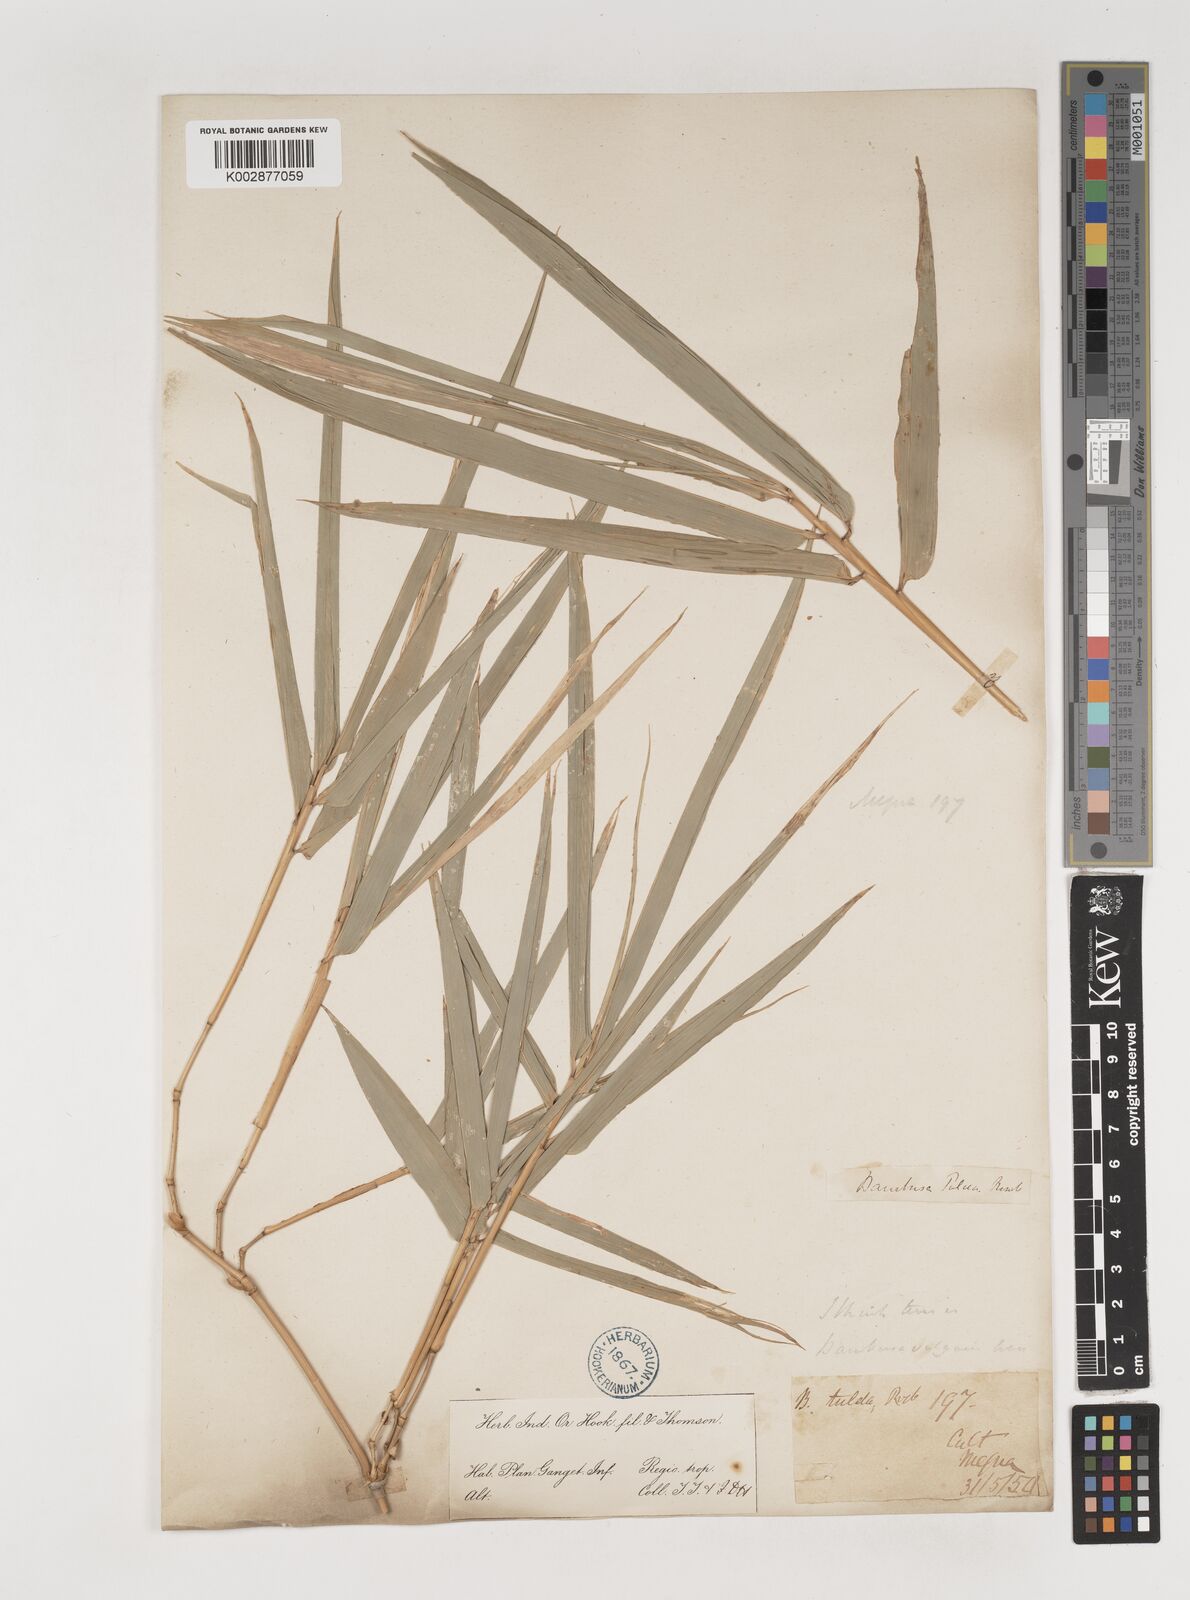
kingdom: Plantae
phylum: Tracheophyta
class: Liliopsida
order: Poales
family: Poaceae
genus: Bambusa
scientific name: Bambusa vulgaris
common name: Common bamboo
